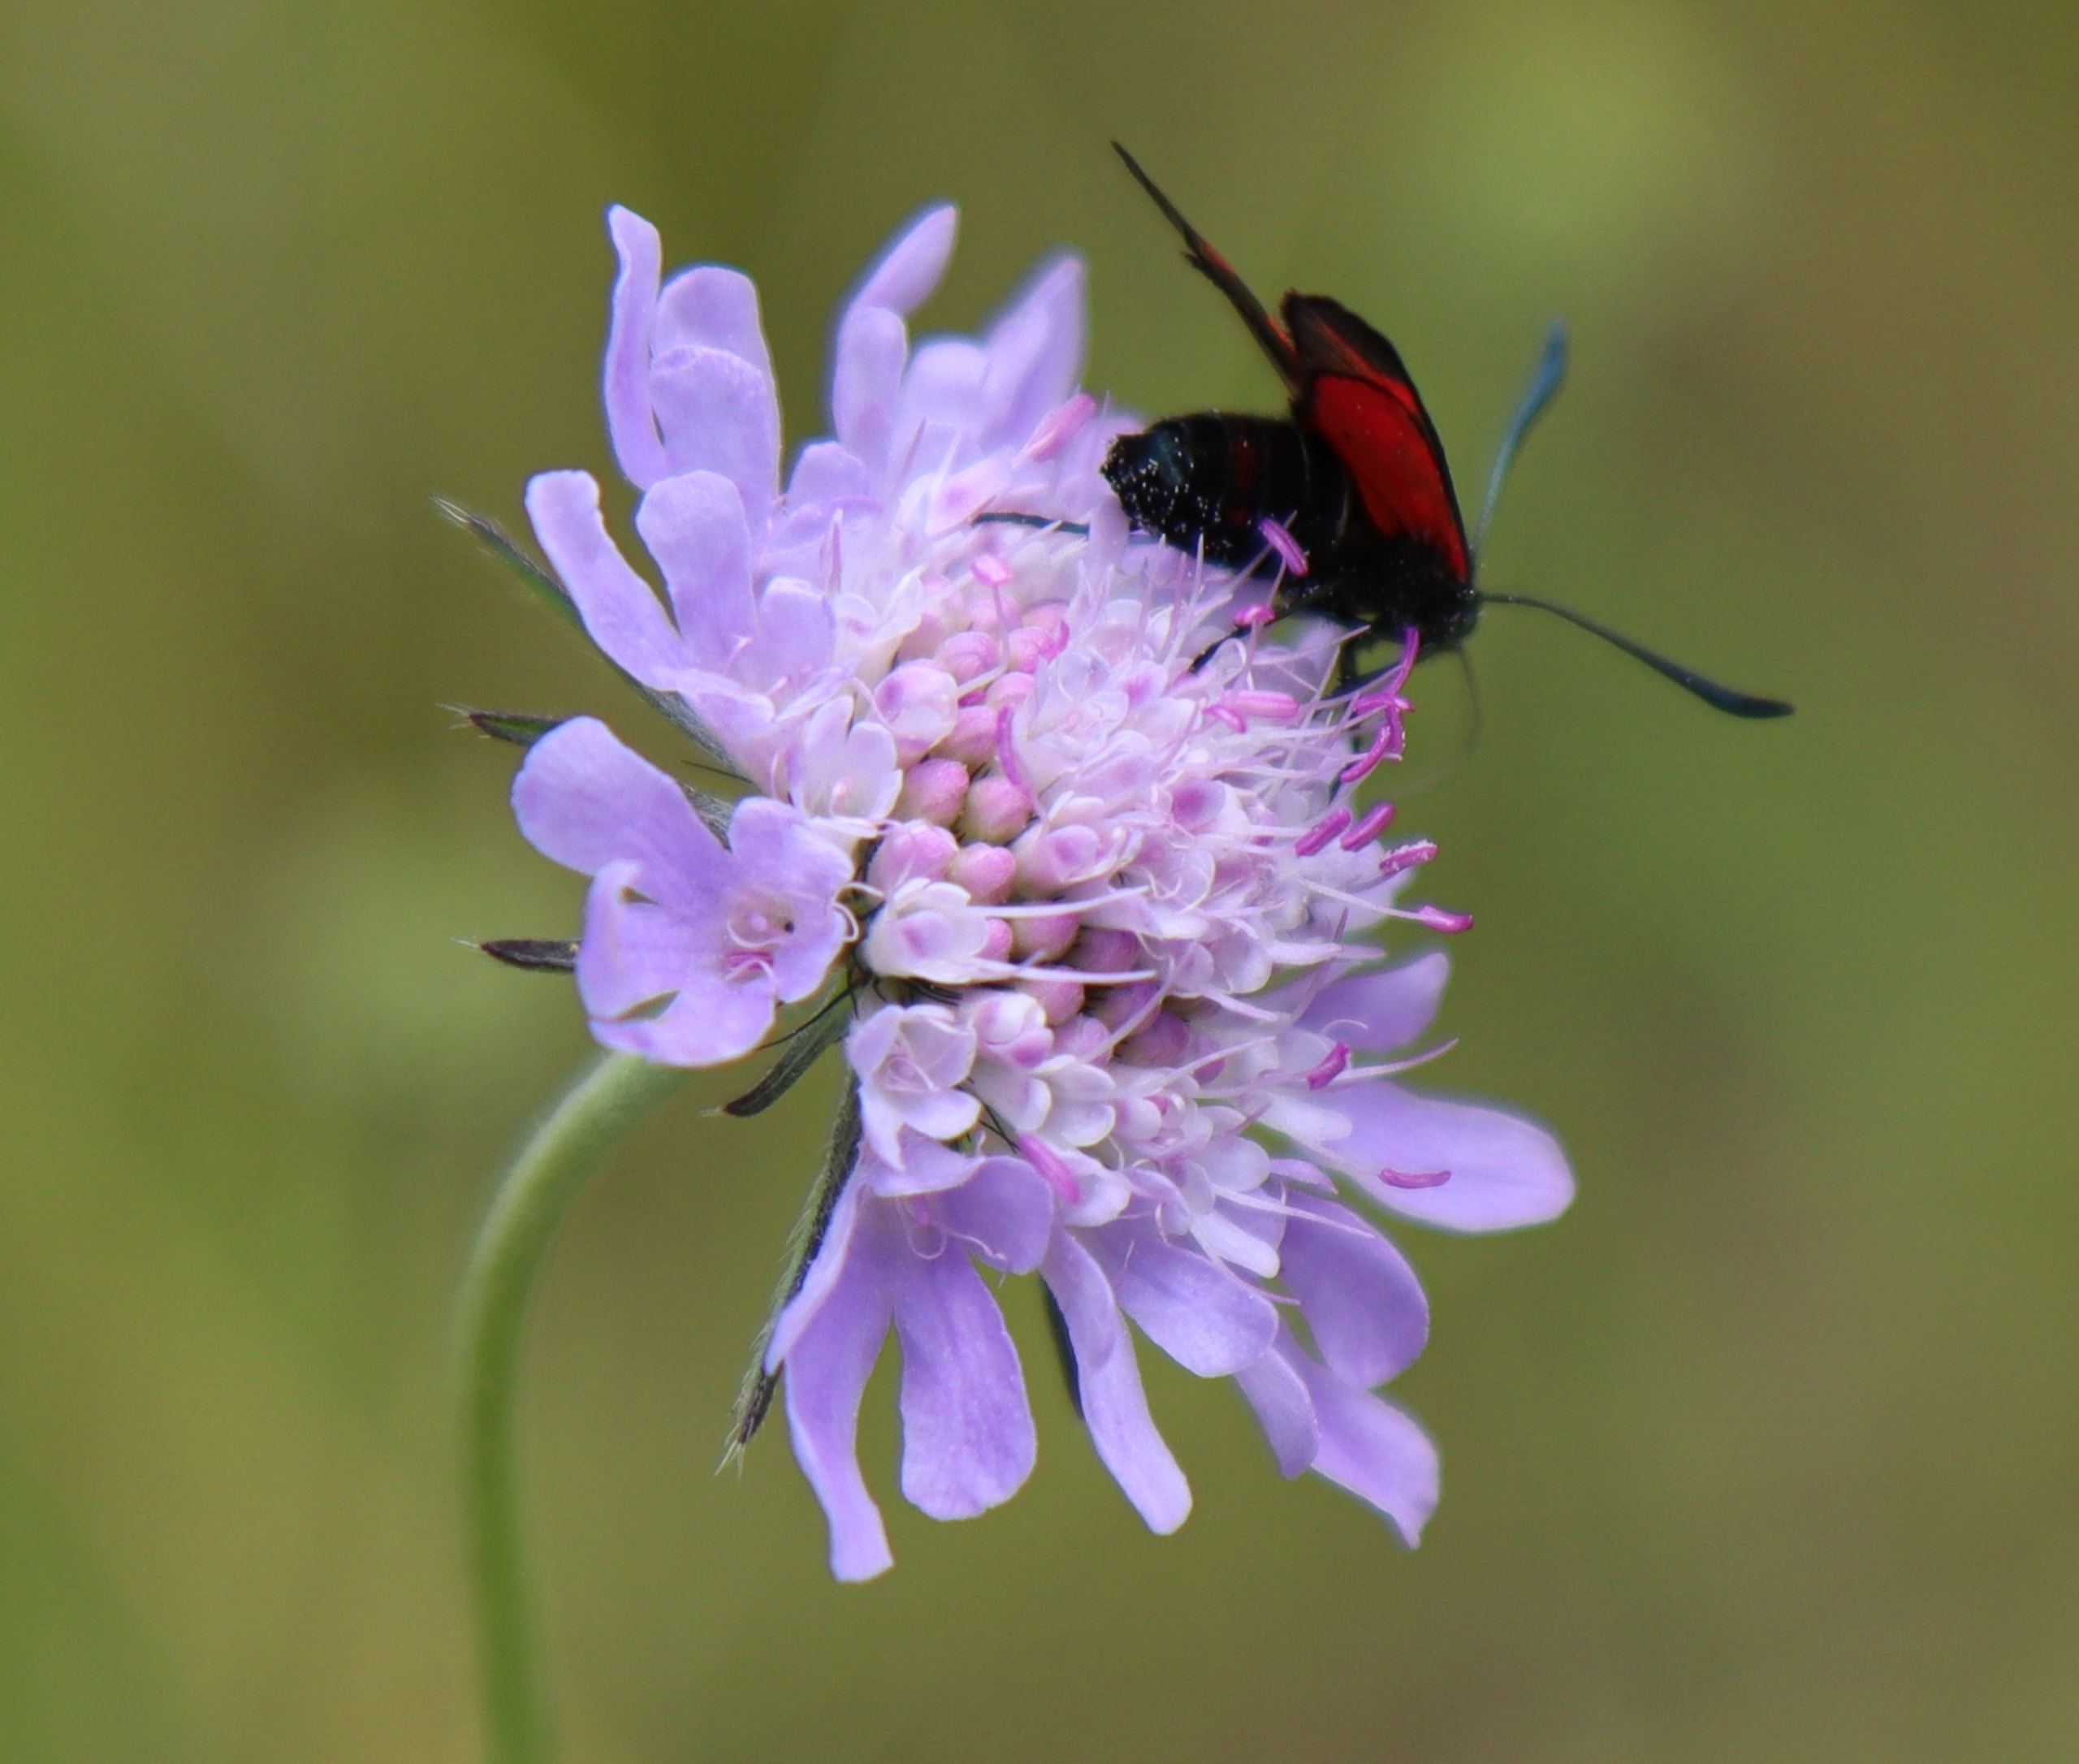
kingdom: Plantae
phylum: Tracheophyta
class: Magnoliopsida
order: Dipsacales
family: Caprifoliaceae
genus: Scabiosa
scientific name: Scabiosa columbaria
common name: Due-skabiose
